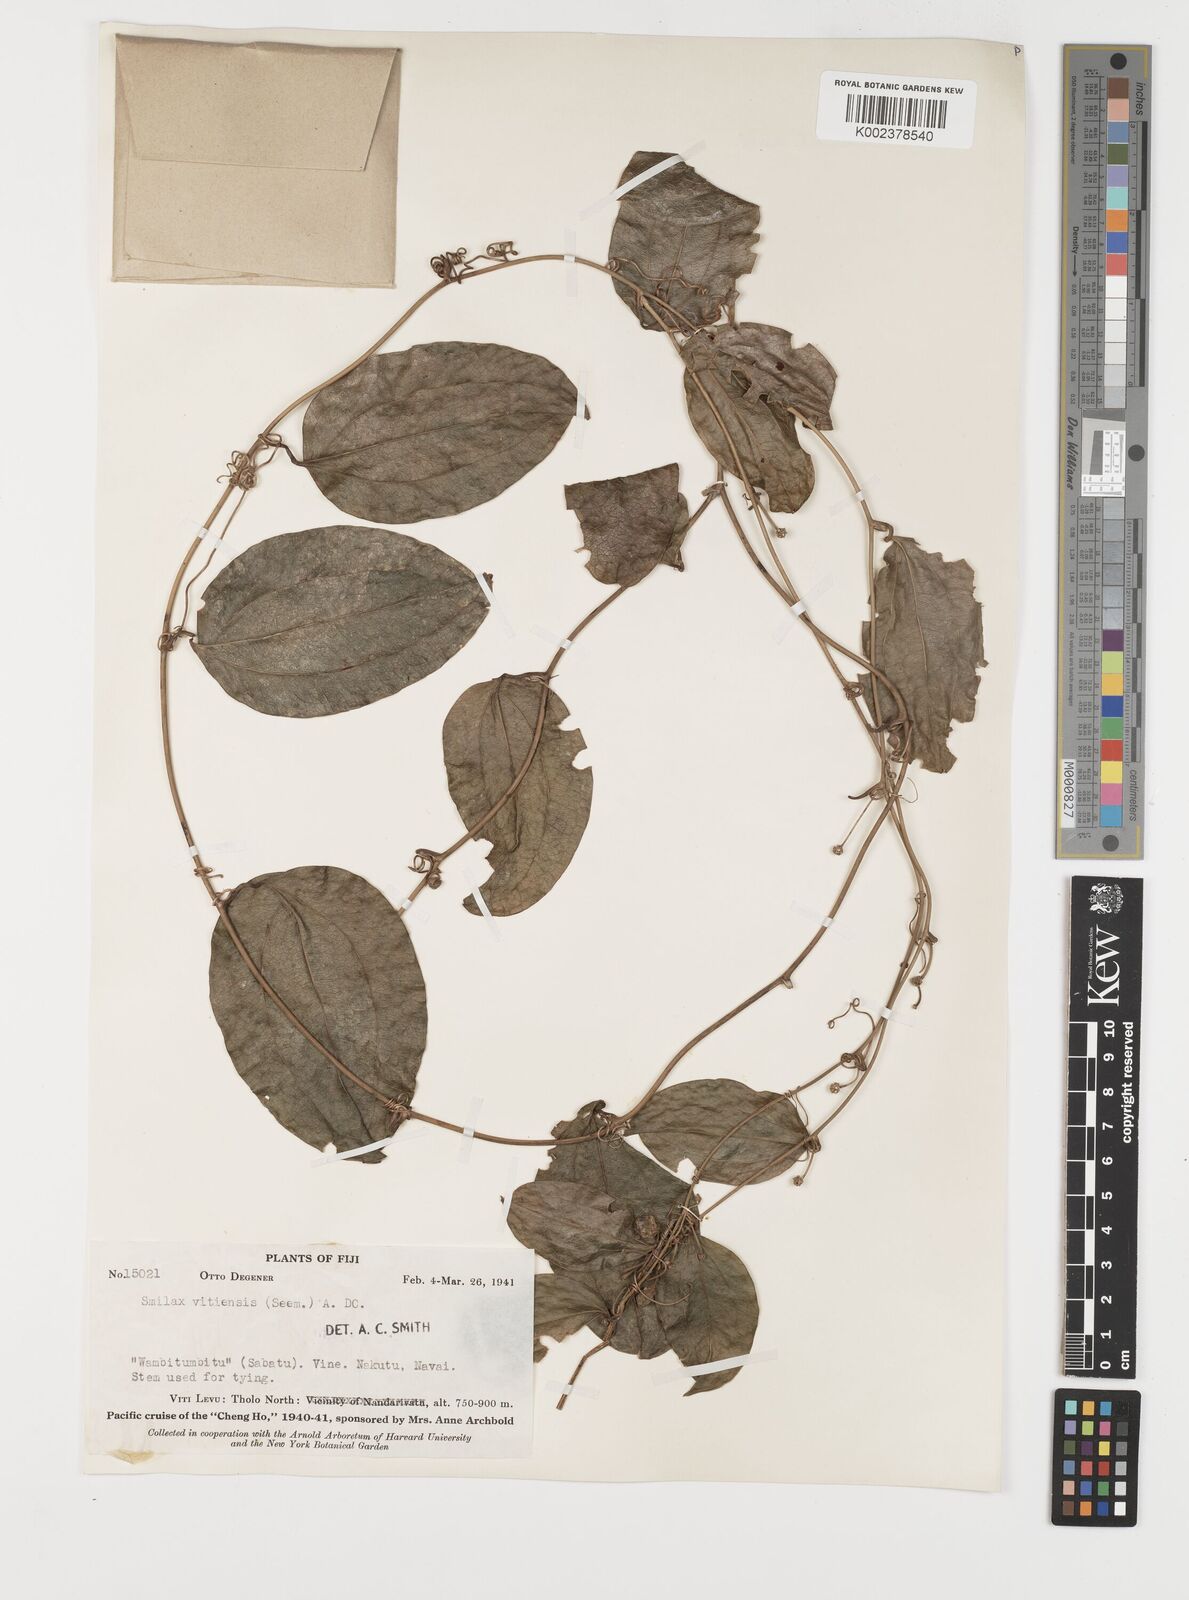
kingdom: Plantae
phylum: Tracheophyta
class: Liliopsida
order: Liliales
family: Smilacaceae
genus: Smilax
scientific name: Smilax vitiensis
